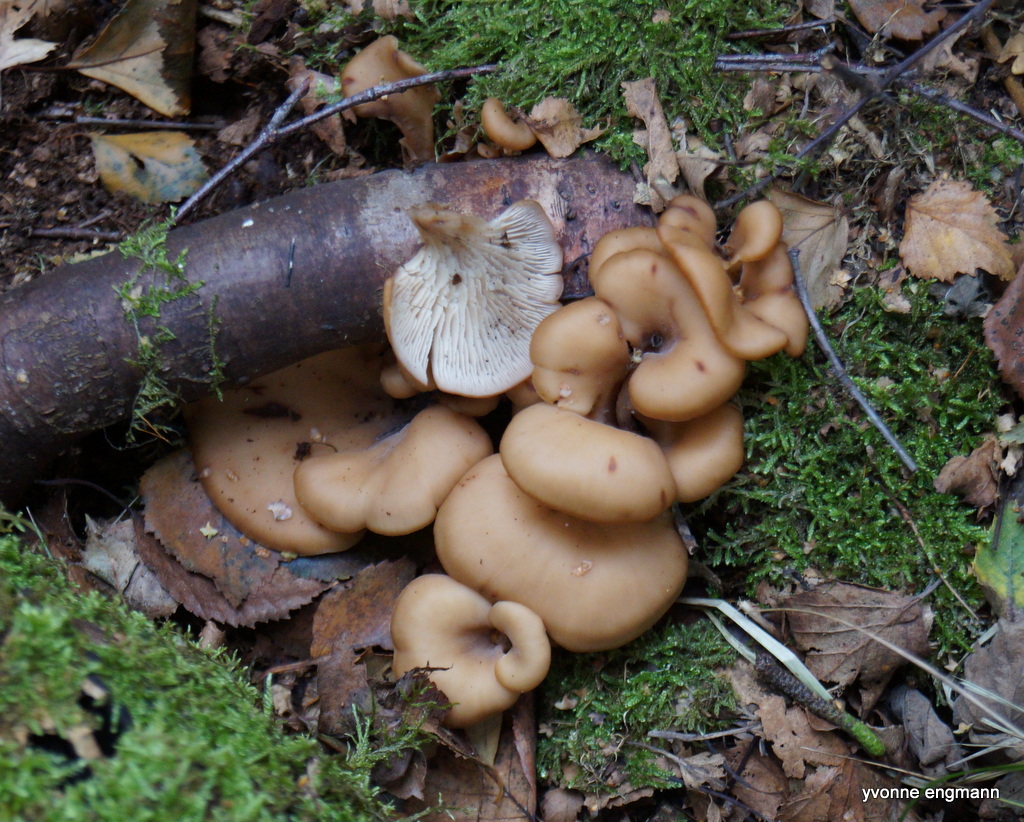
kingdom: Fungi
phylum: Basidiomycota
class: Agaricomycetes
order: Russulales
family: Auriscalpiaceae
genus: Lentinellus
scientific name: Lentinellus cochleatus
